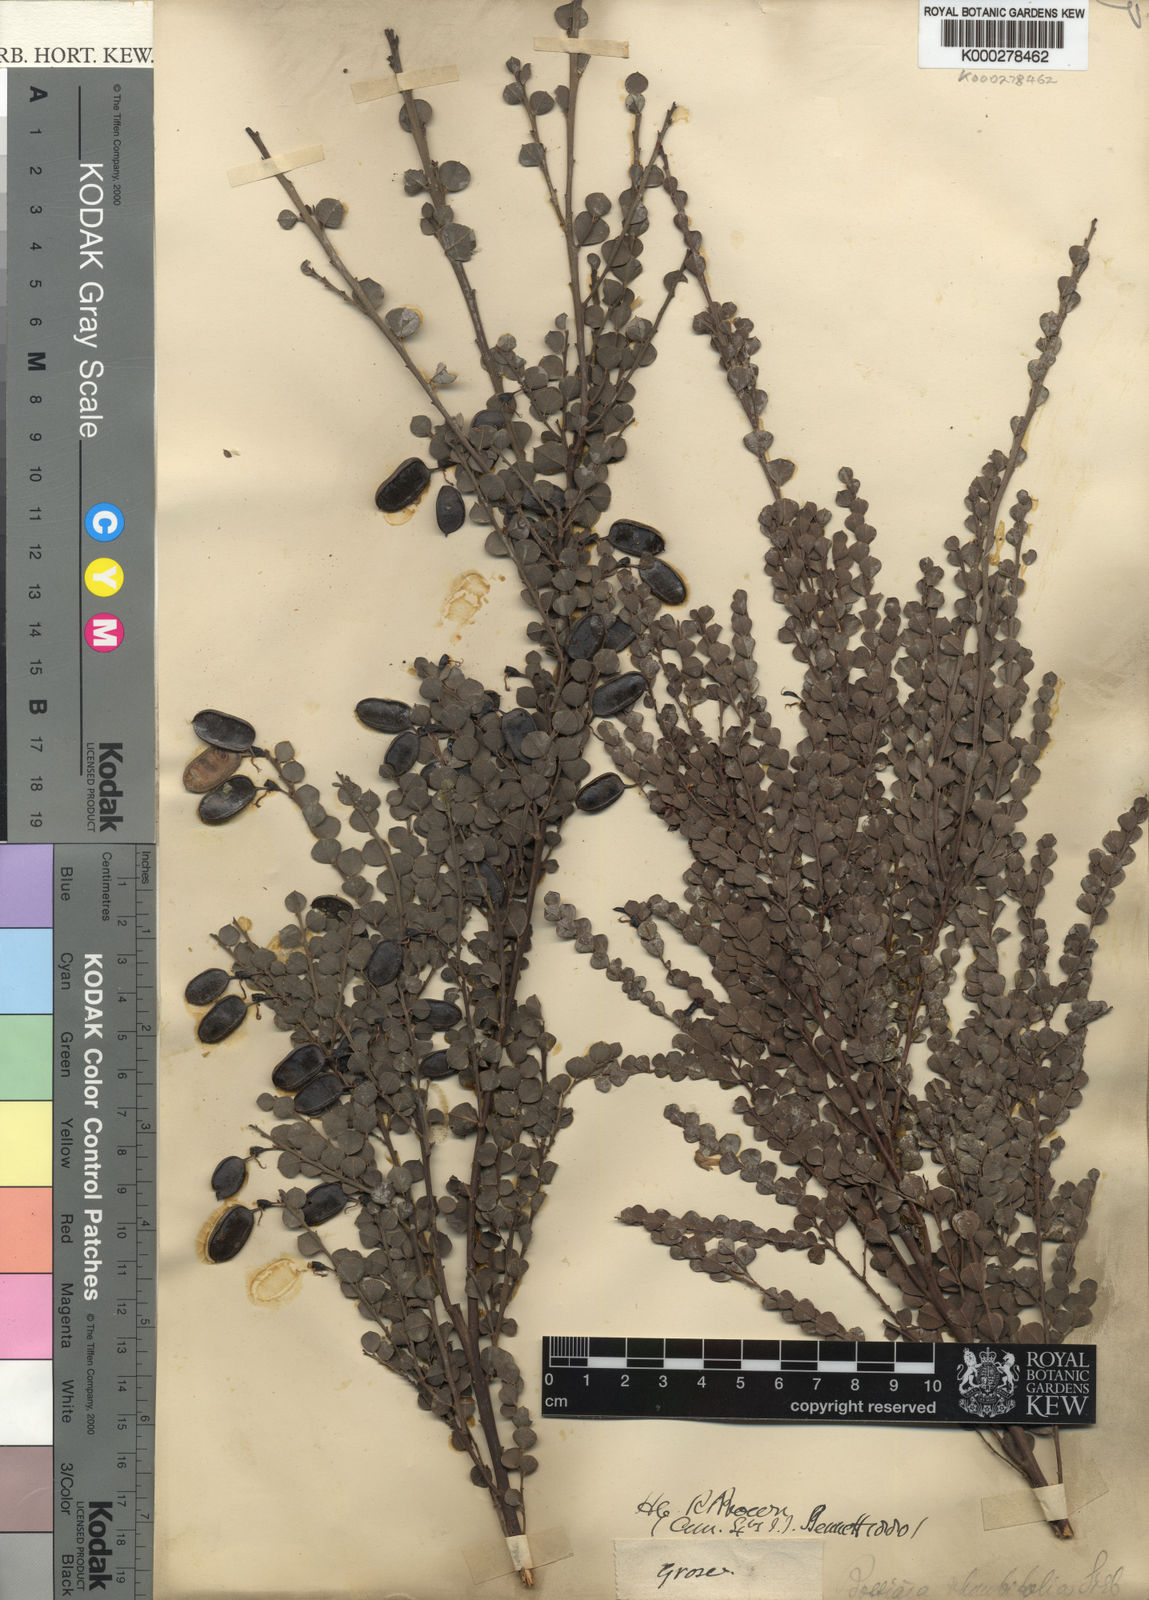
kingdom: Plantae
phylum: Tracheophyta
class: Magnoliopsida
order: Fabales
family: Fabaceae
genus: Bossiaea
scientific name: Bossiaea rhombifolia
